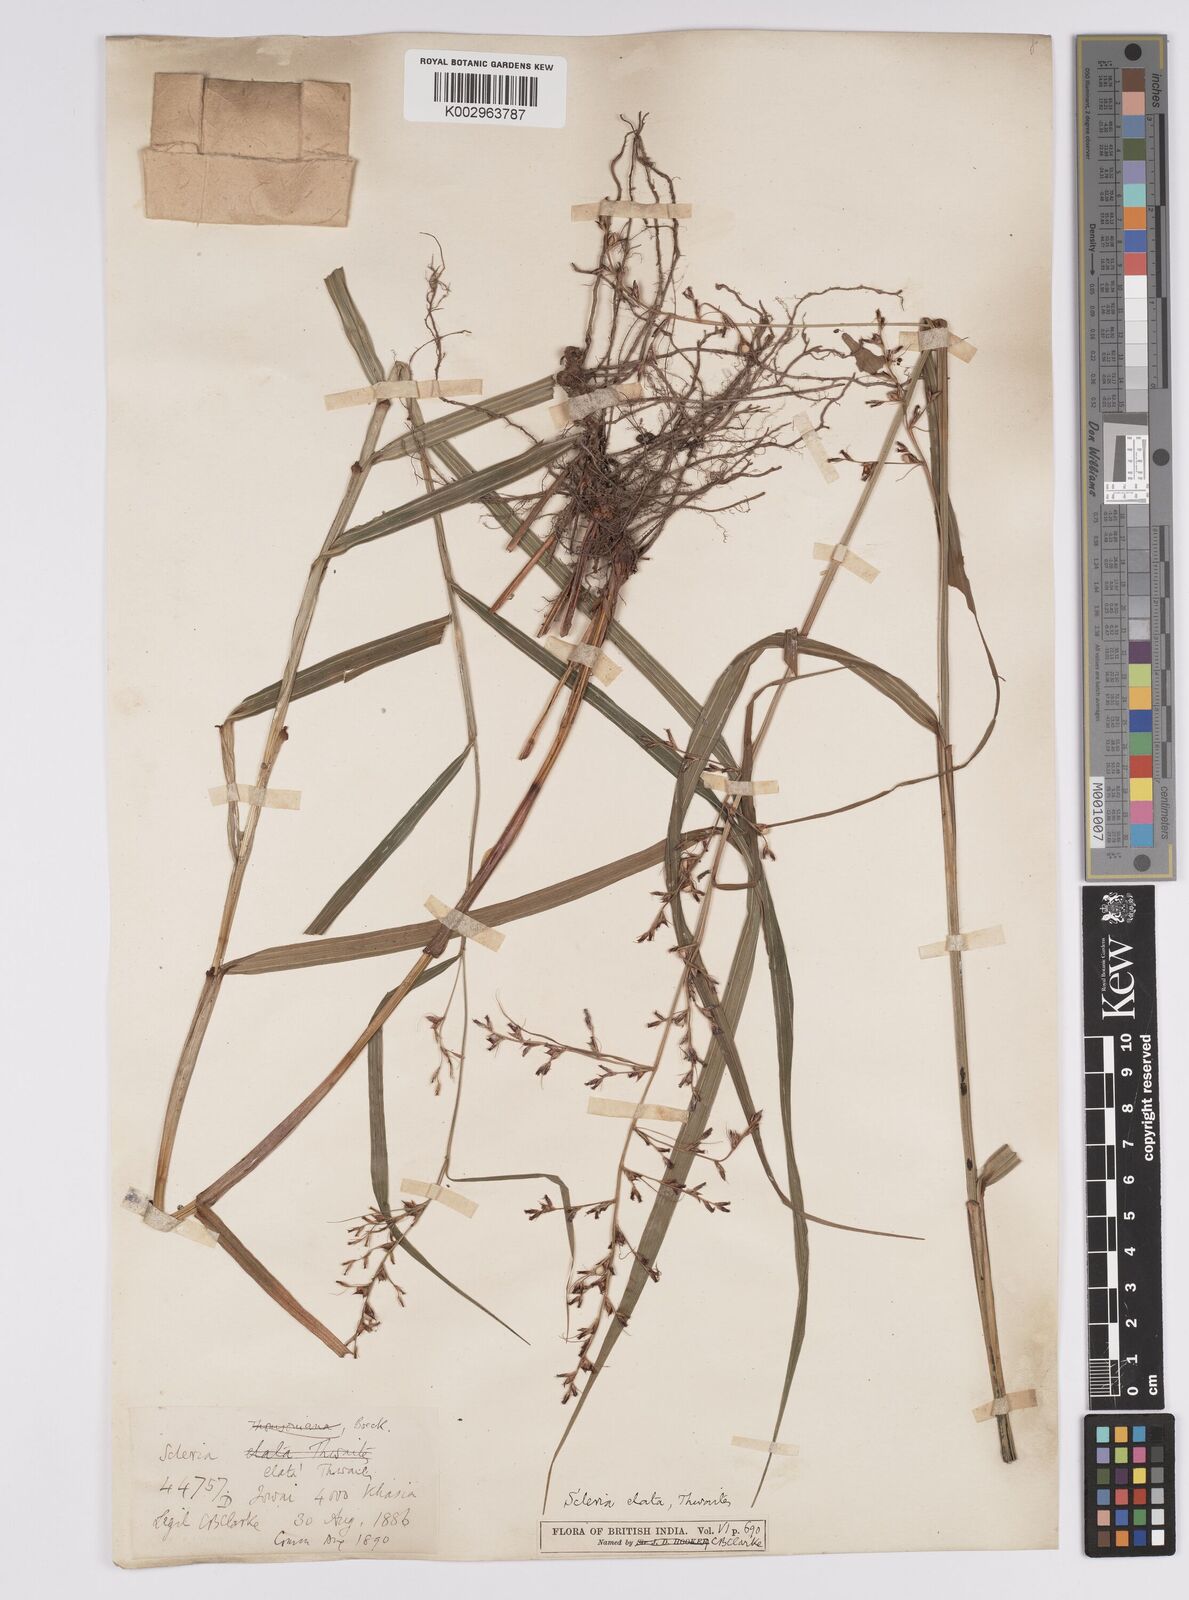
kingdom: Plantae
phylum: Tracheophyta
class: Liliopsida
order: Poales
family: Cyperaceae
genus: Scleria
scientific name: Scleria terrestris
